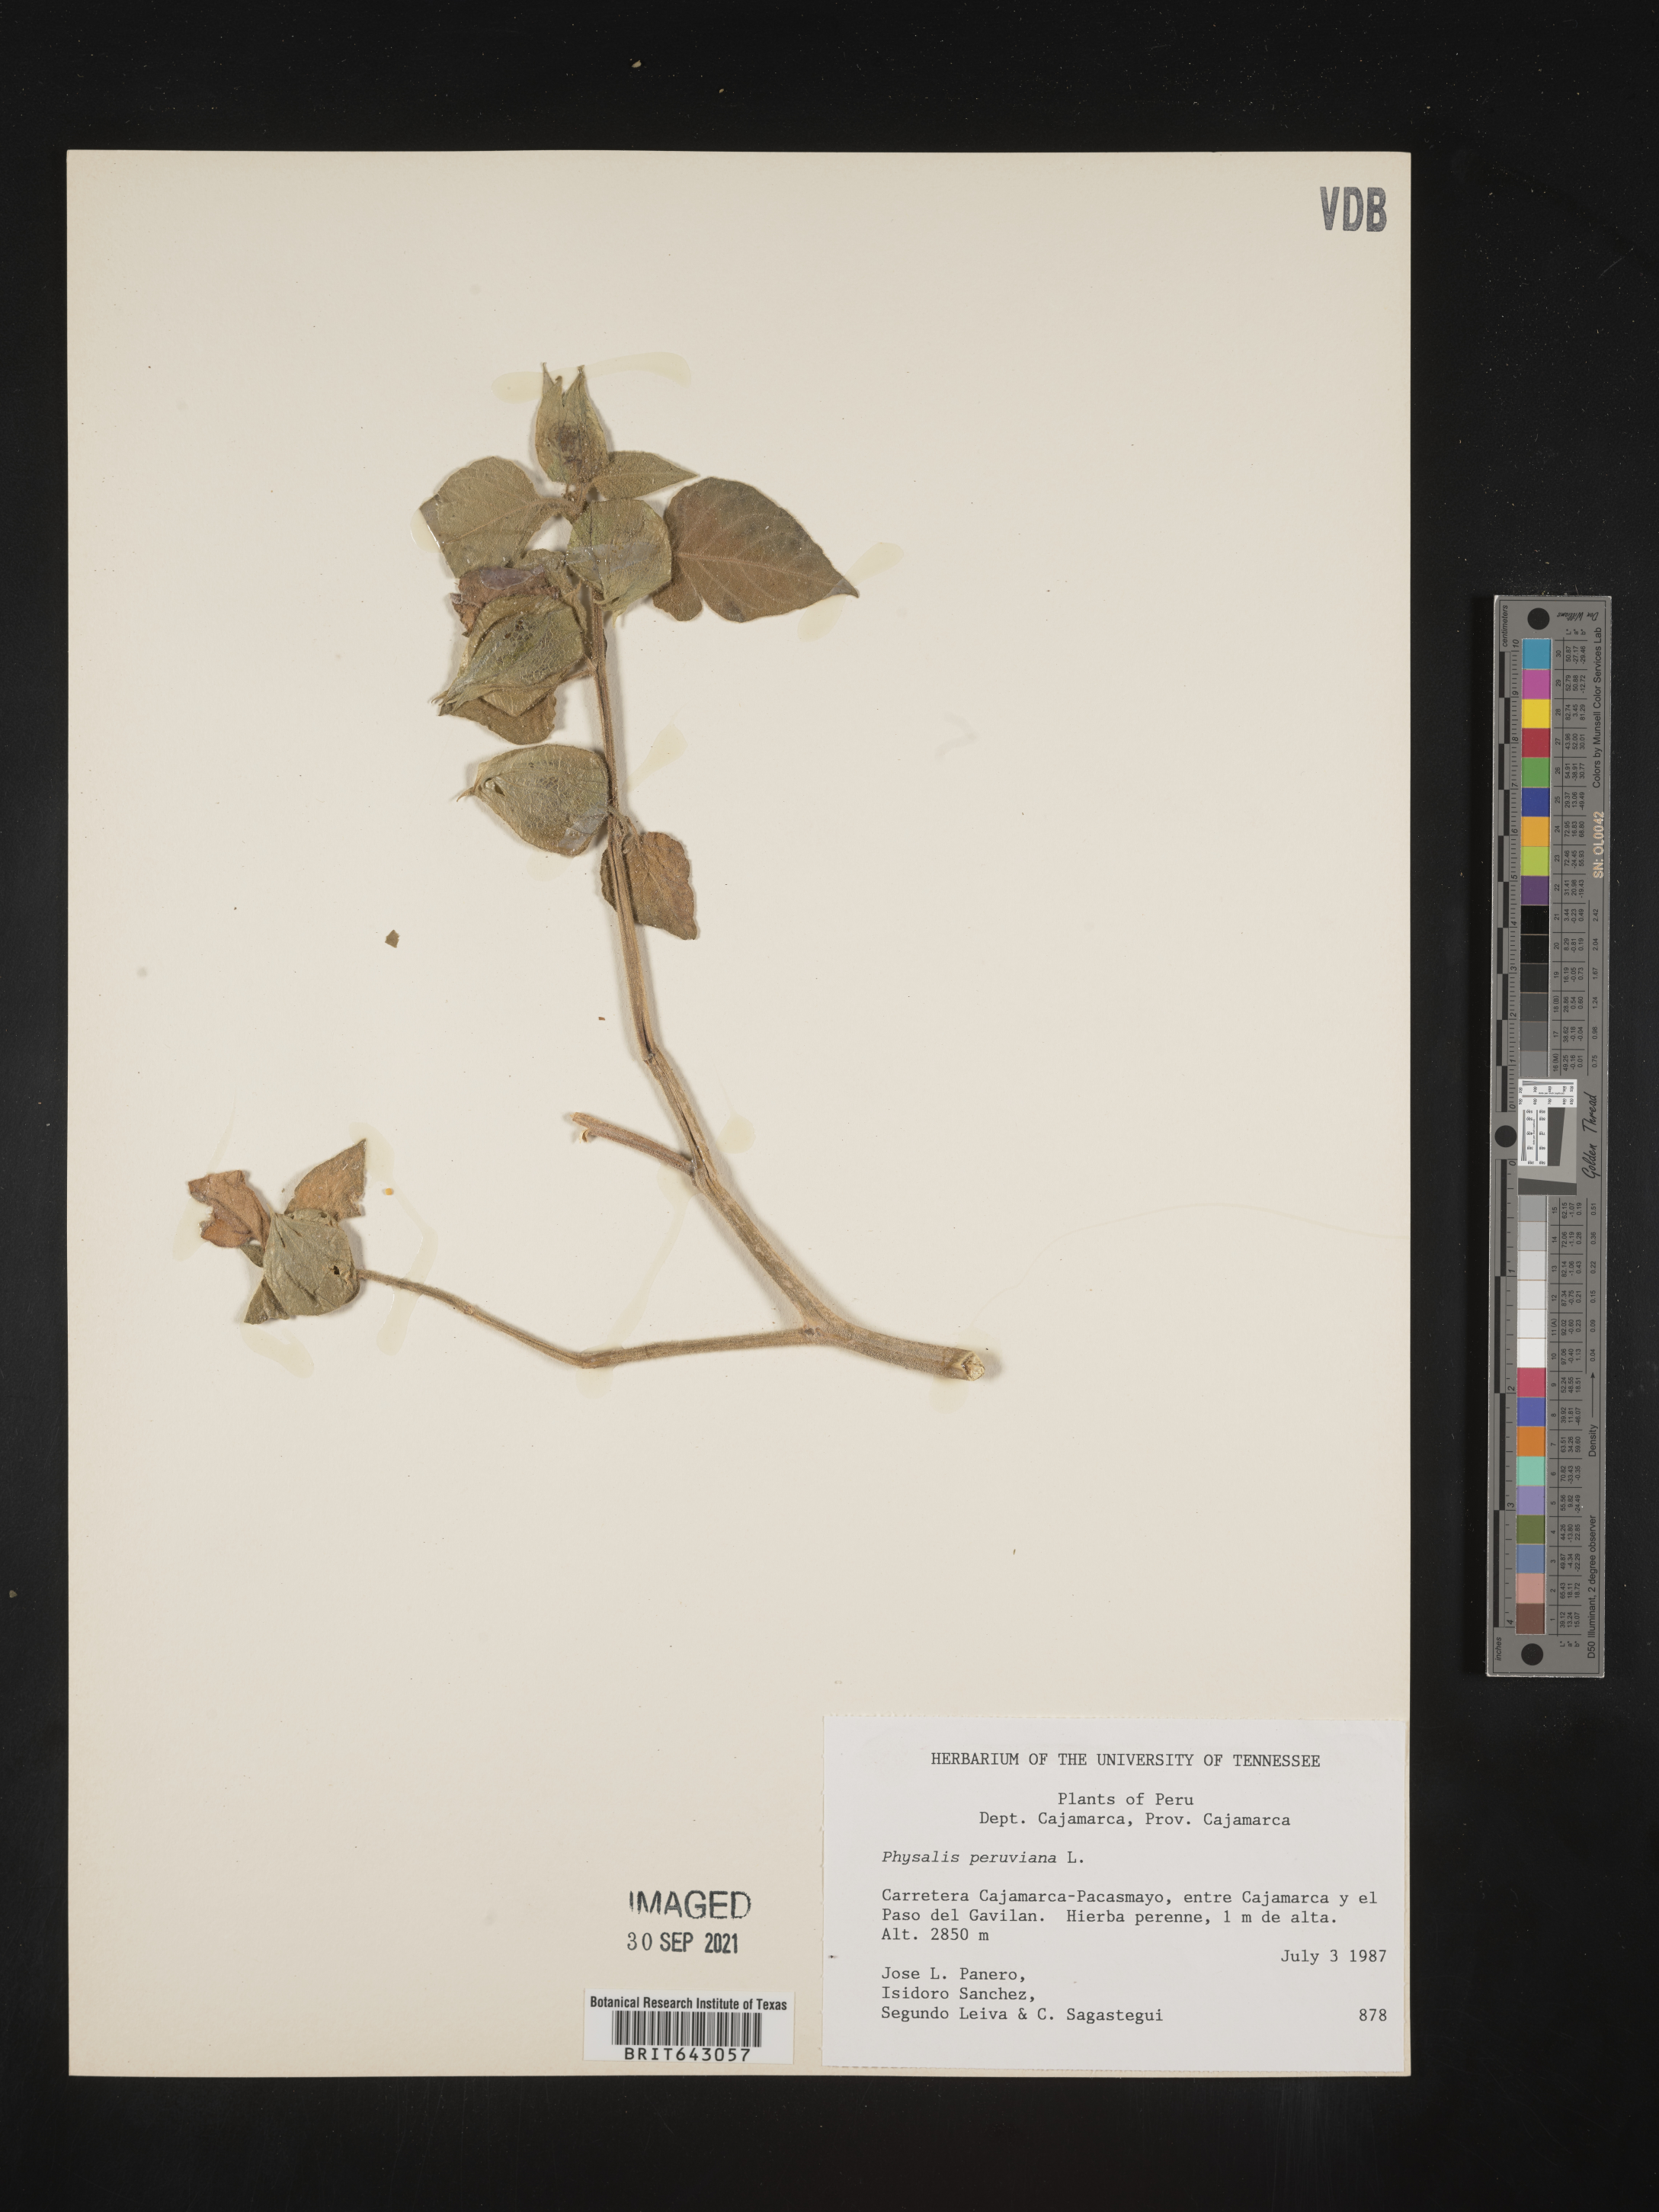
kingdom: Plantae
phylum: Tracheophyta
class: Magnoliopsida
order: Solanales
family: Solanaceae
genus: Physalis
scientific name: Physalis
